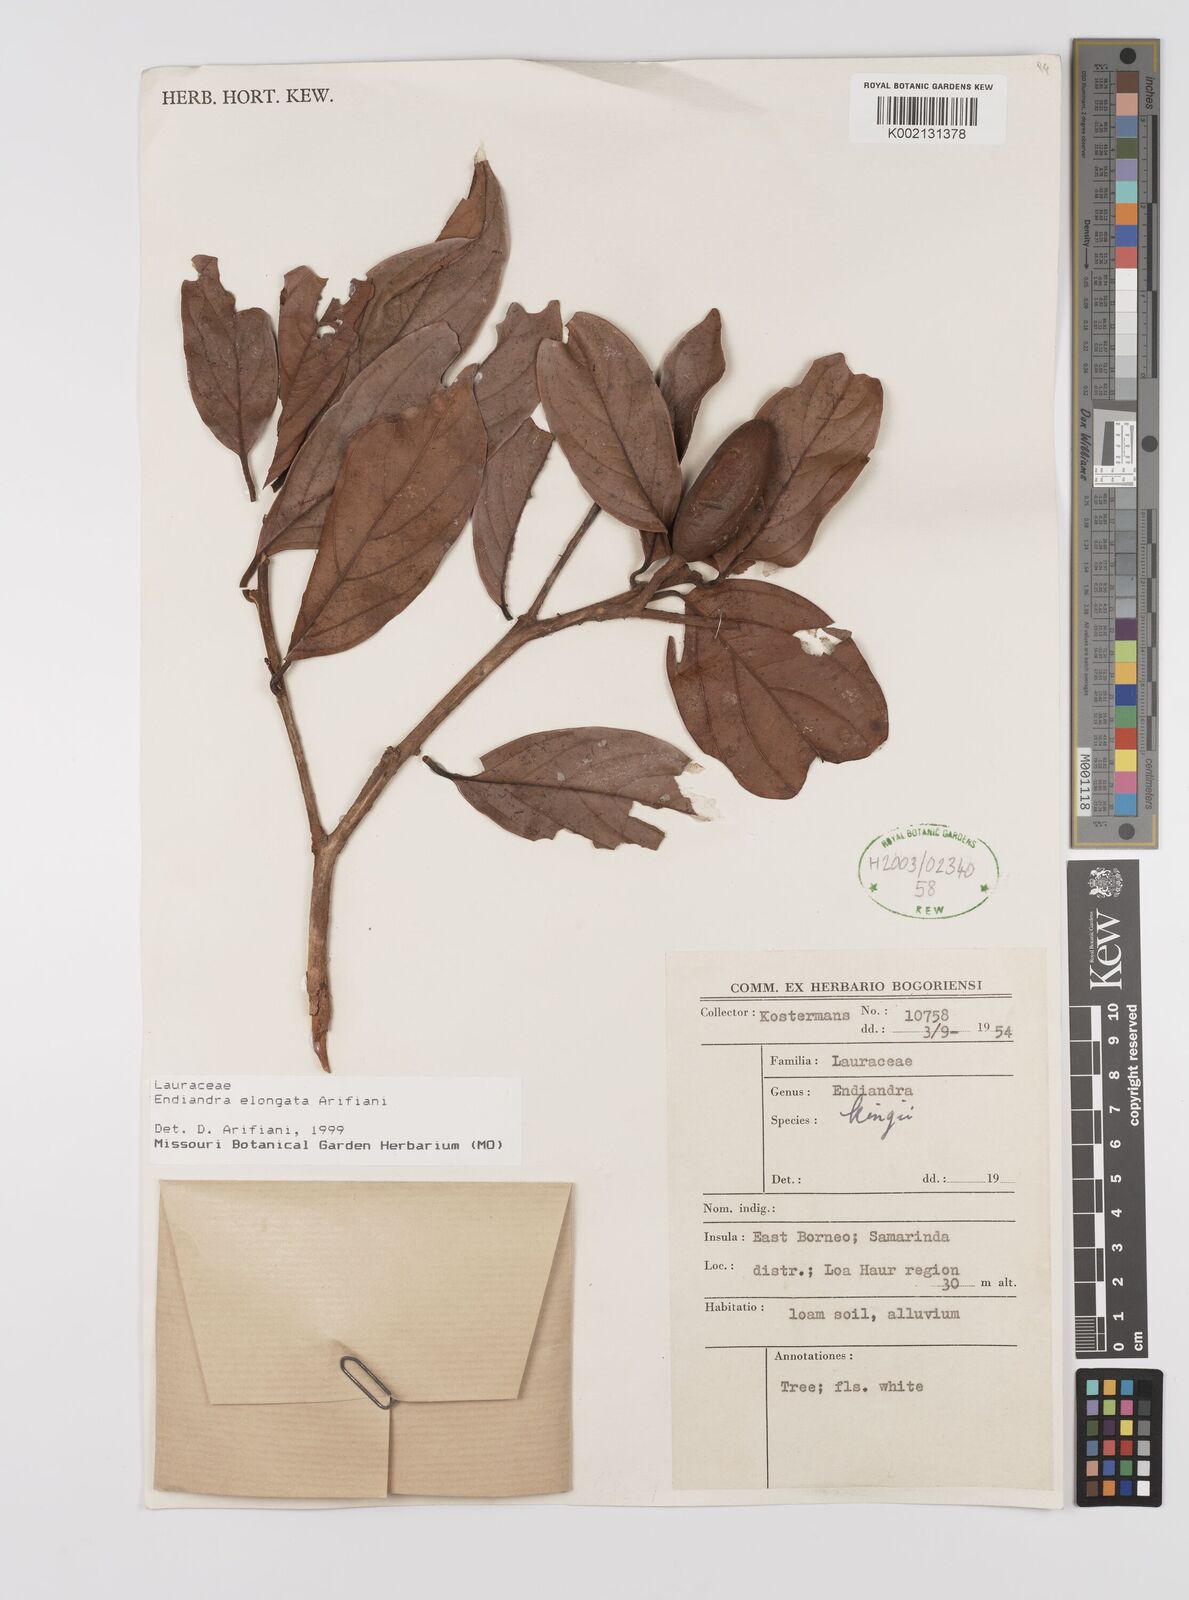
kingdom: Plantae
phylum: Tracheophyta
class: Magnoliopsida
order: Laurales
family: Lauraceae
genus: Endiandra
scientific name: Endiandra elongata
